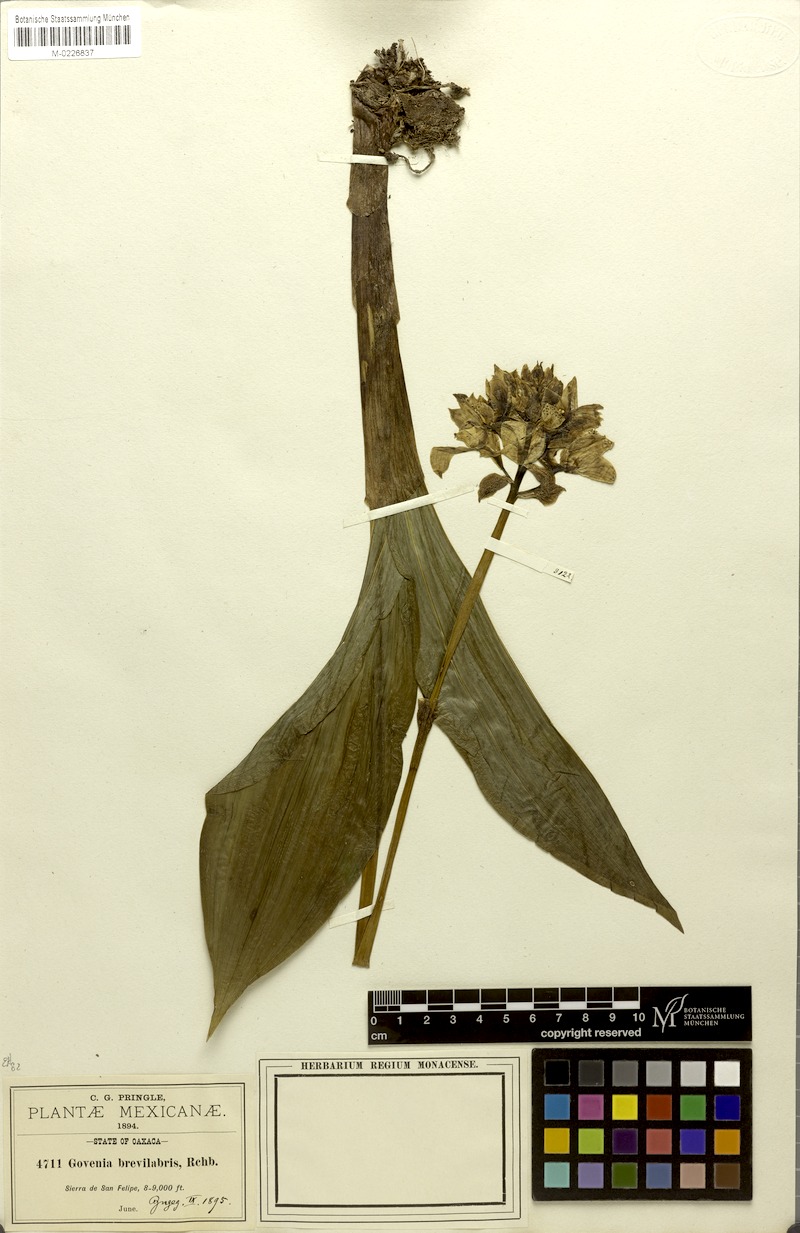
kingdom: Plantae
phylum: Tracheophyta
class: Liliopsida
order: Asparagales
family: Orchidaceae
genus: Govenia
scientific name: Govenia liliacea
